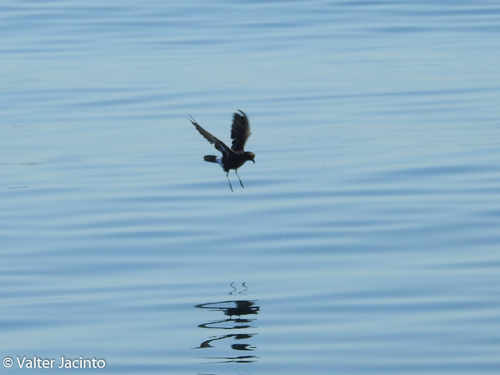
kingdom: Animalia
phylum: Chordata
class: Aves
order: Procellariiformes
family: Hydrobatidae
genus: Hydrobates
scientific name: Hydrobates pelagicus
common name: European storm-petrel
